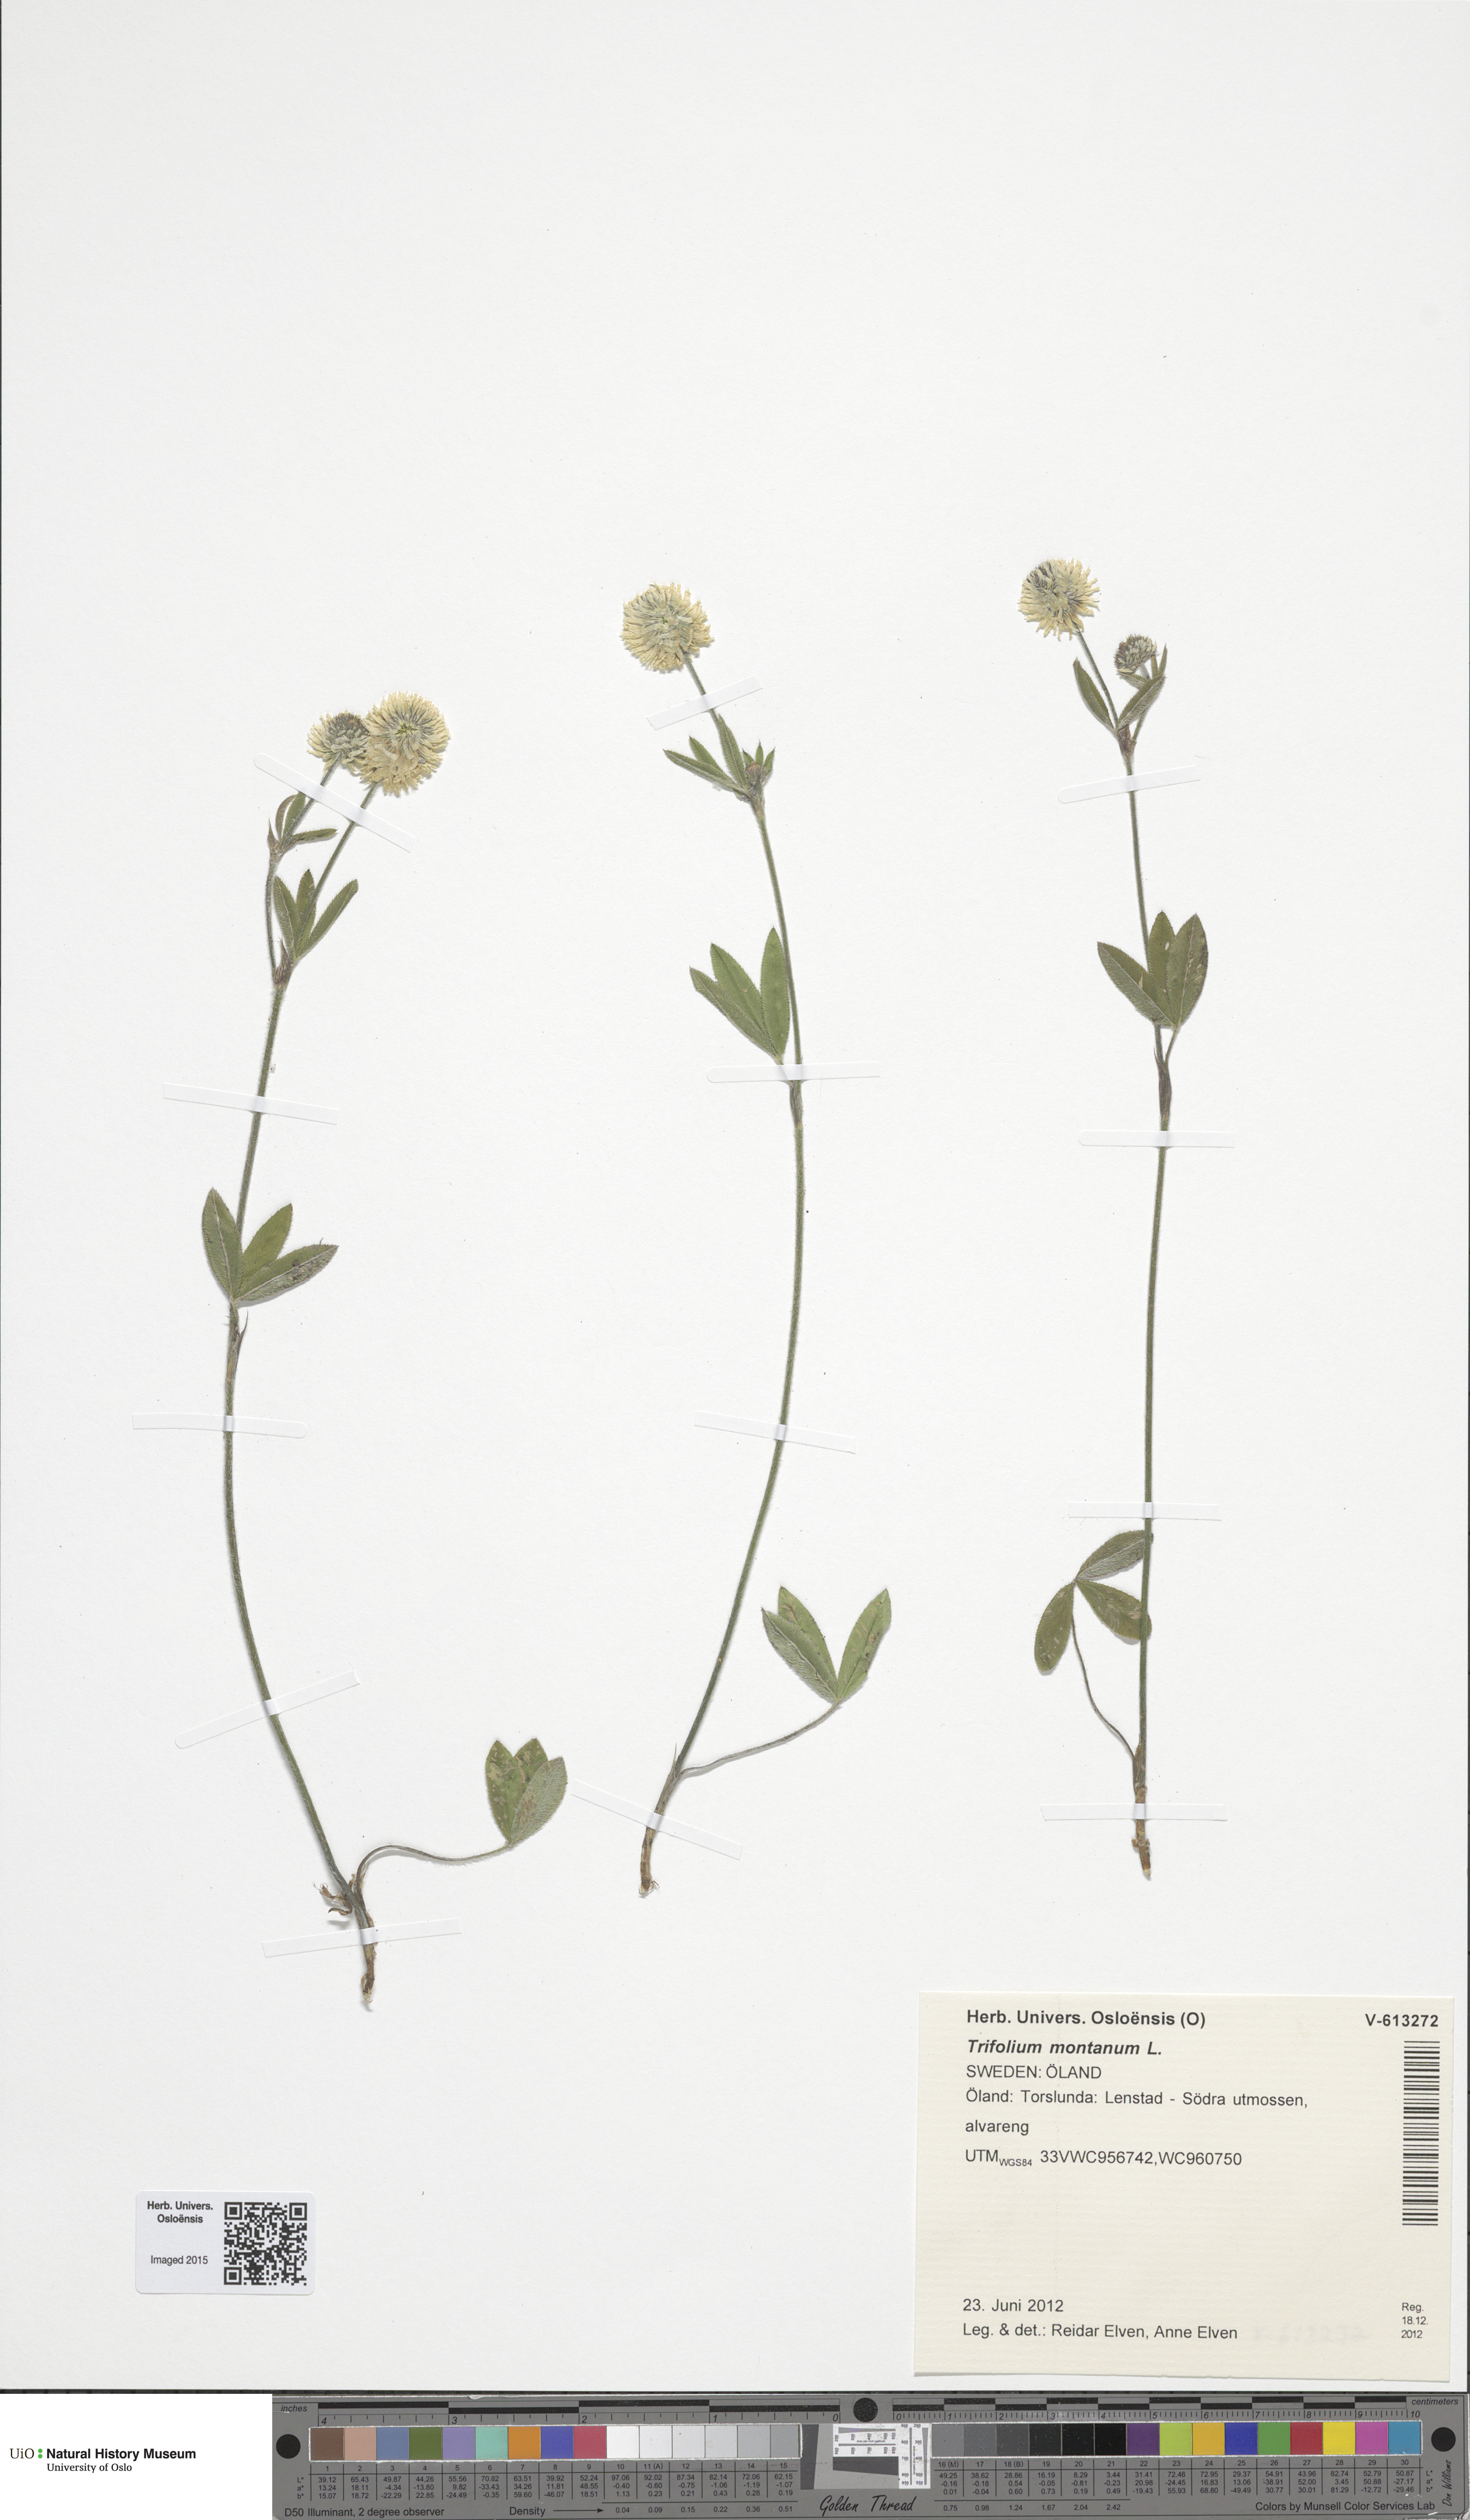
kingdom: Plantae
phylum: Tracheophyta
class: Magnoliopsida
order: Fabales
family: Fabaceae
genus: Trifolium
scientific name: Trifolium montanum
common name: Mountain clover
